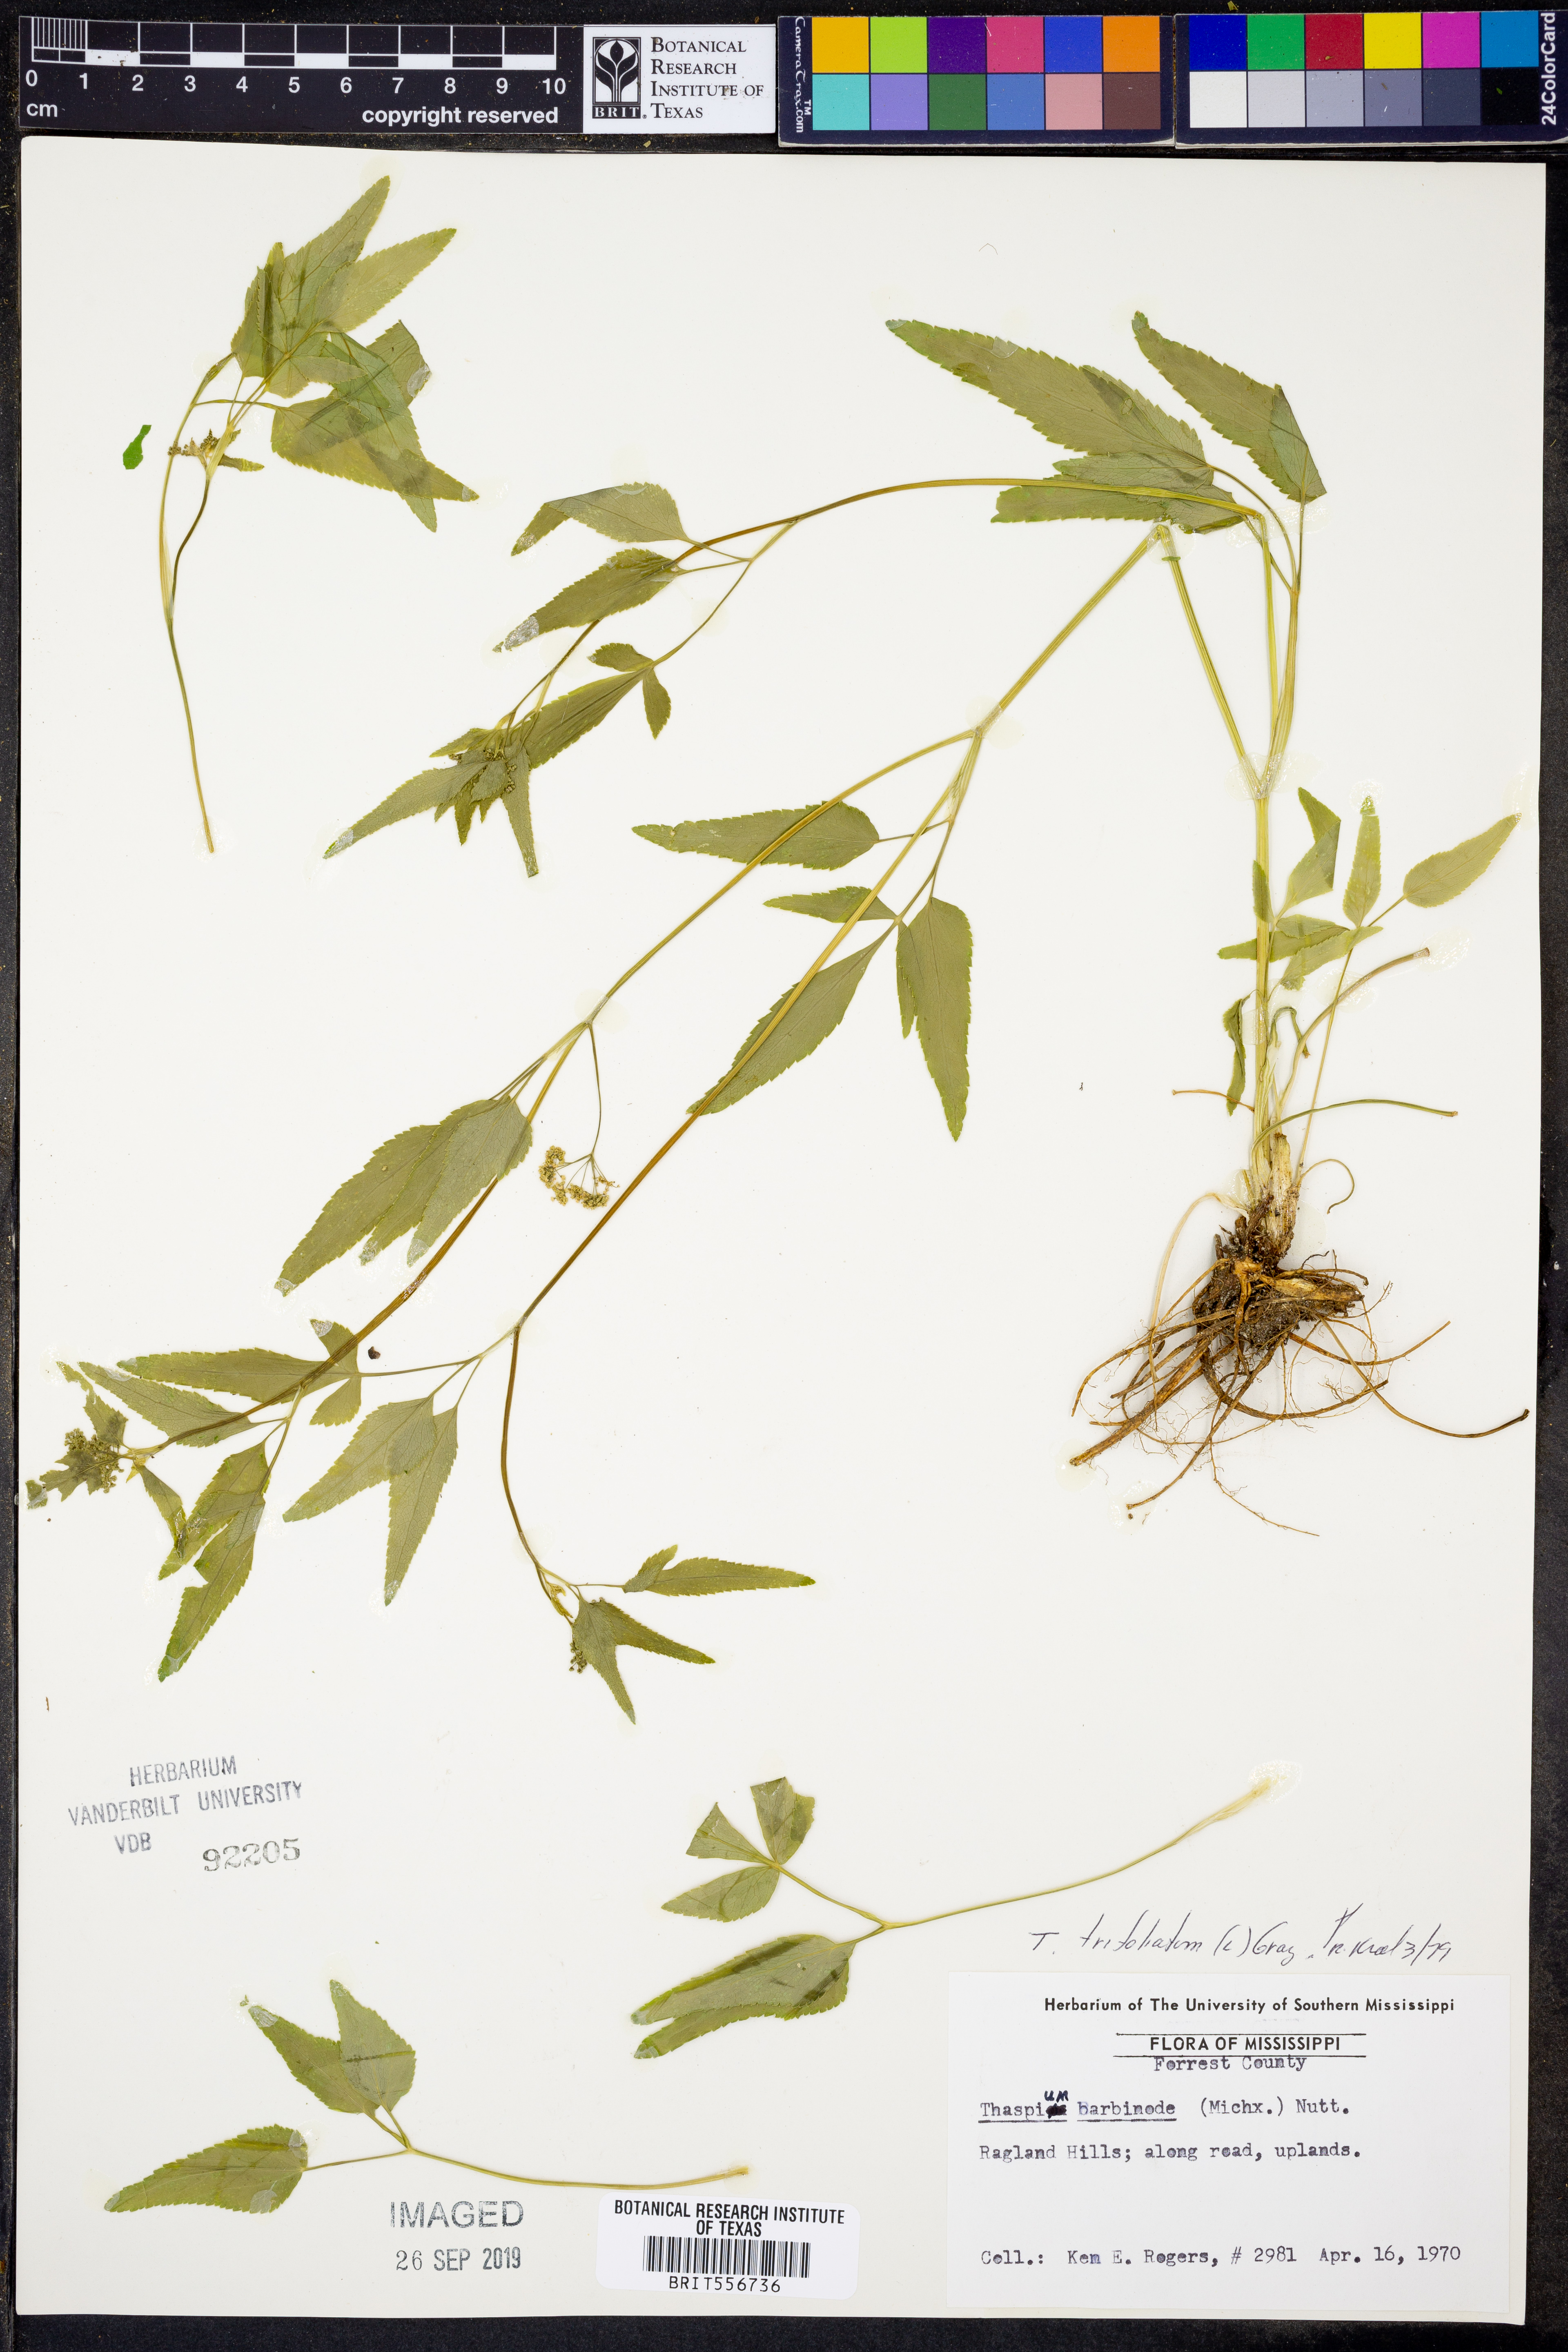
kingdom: Plantae
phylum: Tracheophyta
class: Magnoliopsida
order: Apiales
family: Apiaceae
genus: Thaspium
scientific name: Thaspium trifoliatum
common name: Purple meadow-parsnip
